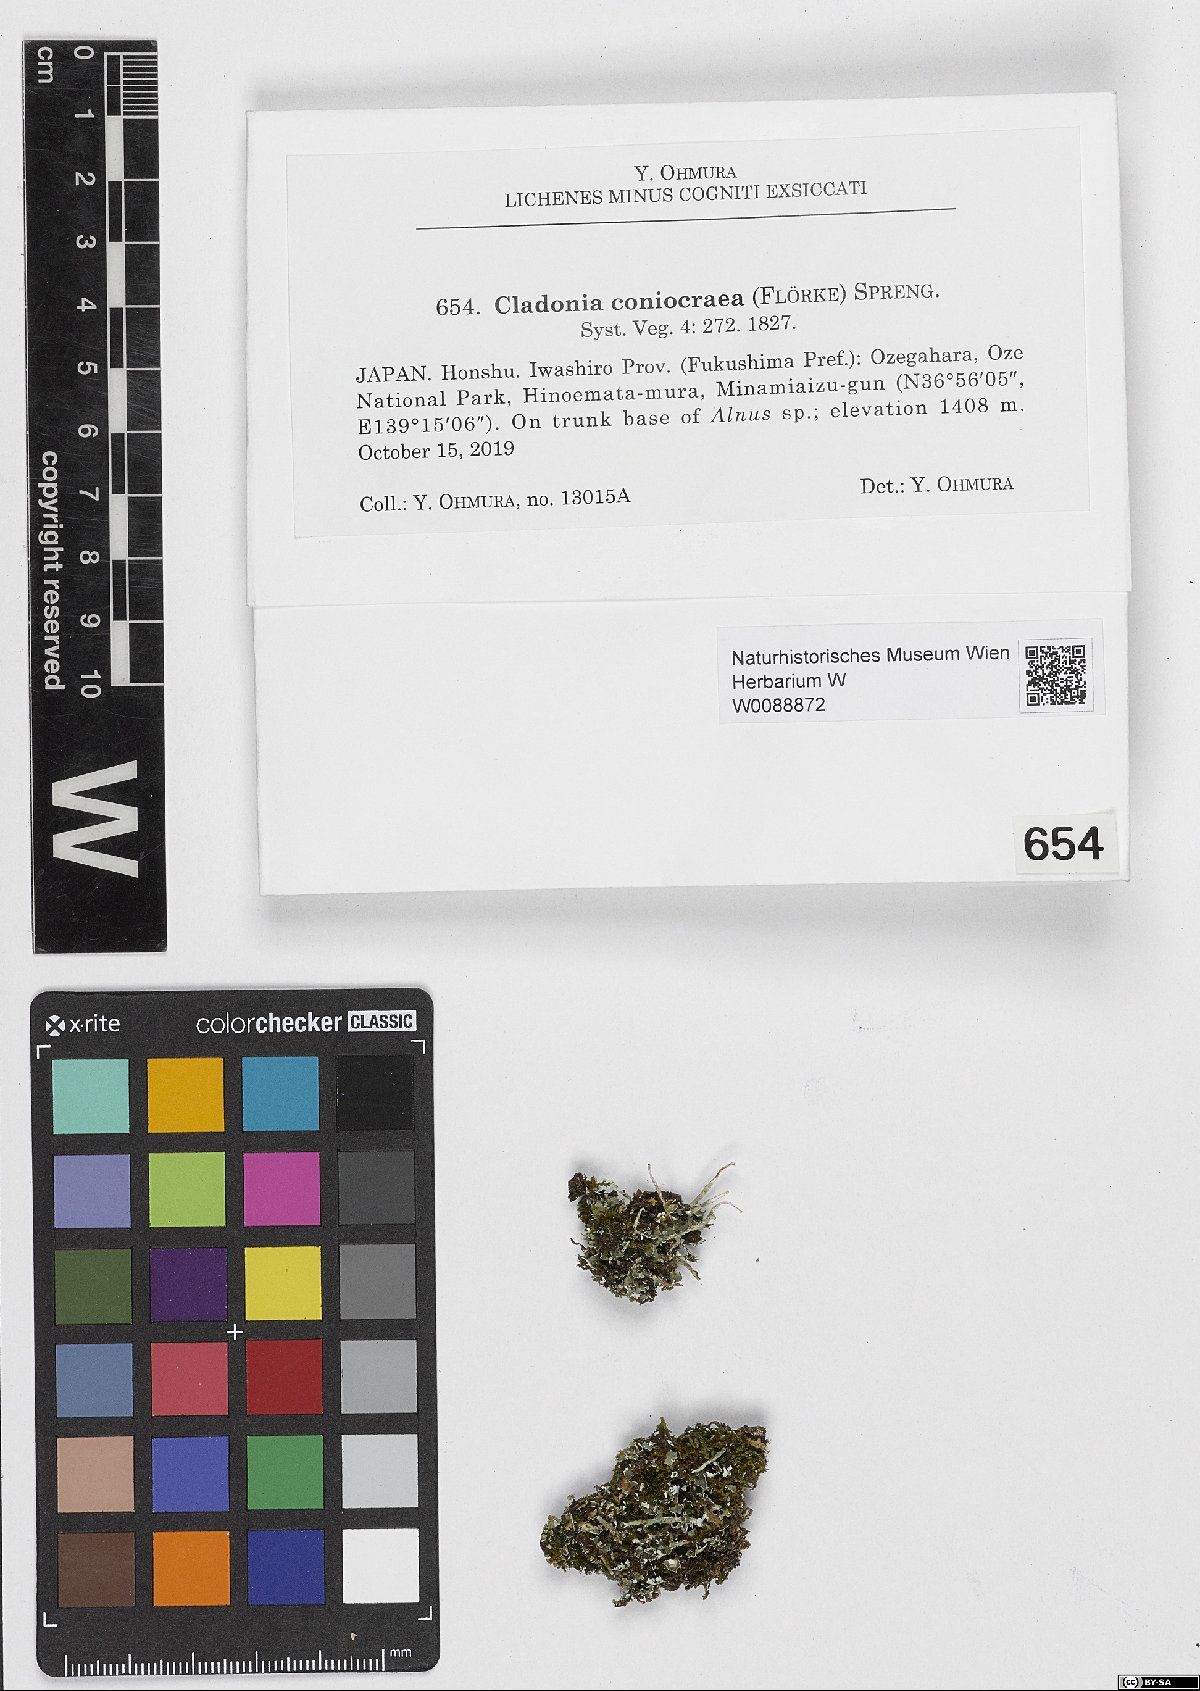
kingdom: Fungi
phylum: Ascomycota
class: Lecanoromycetes
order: Lecanorales
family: Cladoniaceae
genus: Cladonia
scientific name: Cladonia coniocraea
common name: Common powderhorn
